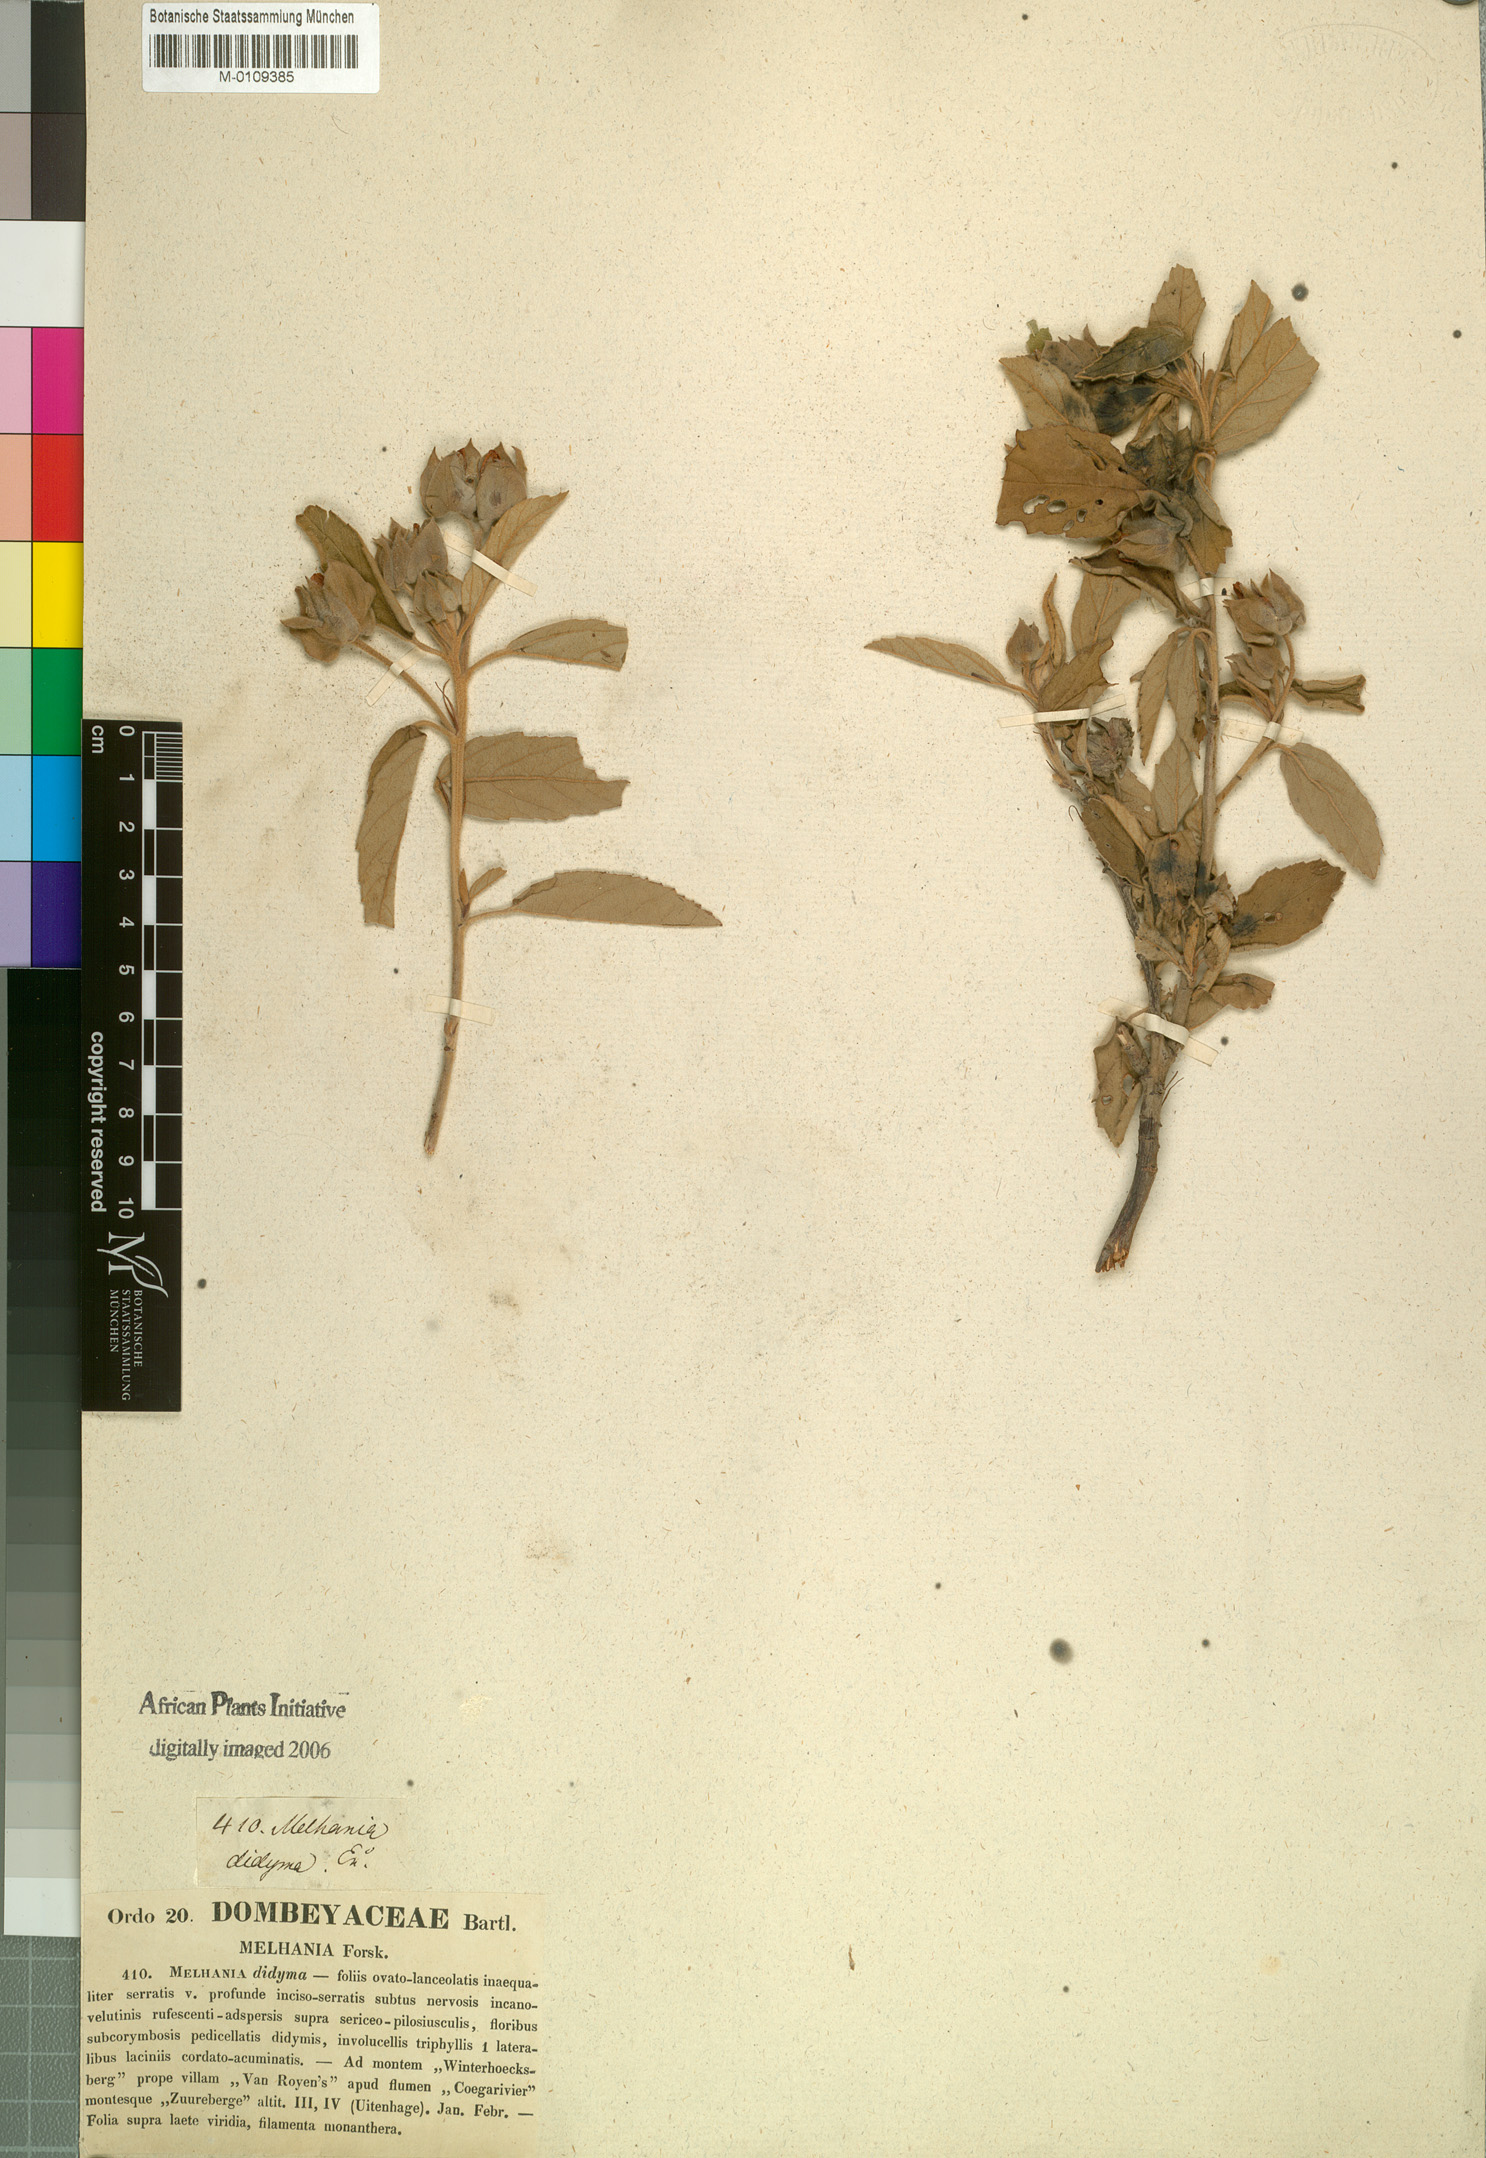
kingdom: Plantae
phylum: Tracheophyta
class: Magnoliopsida
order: Malvales
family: Malvaceae
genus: Melhania
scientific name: Melhania didyma
